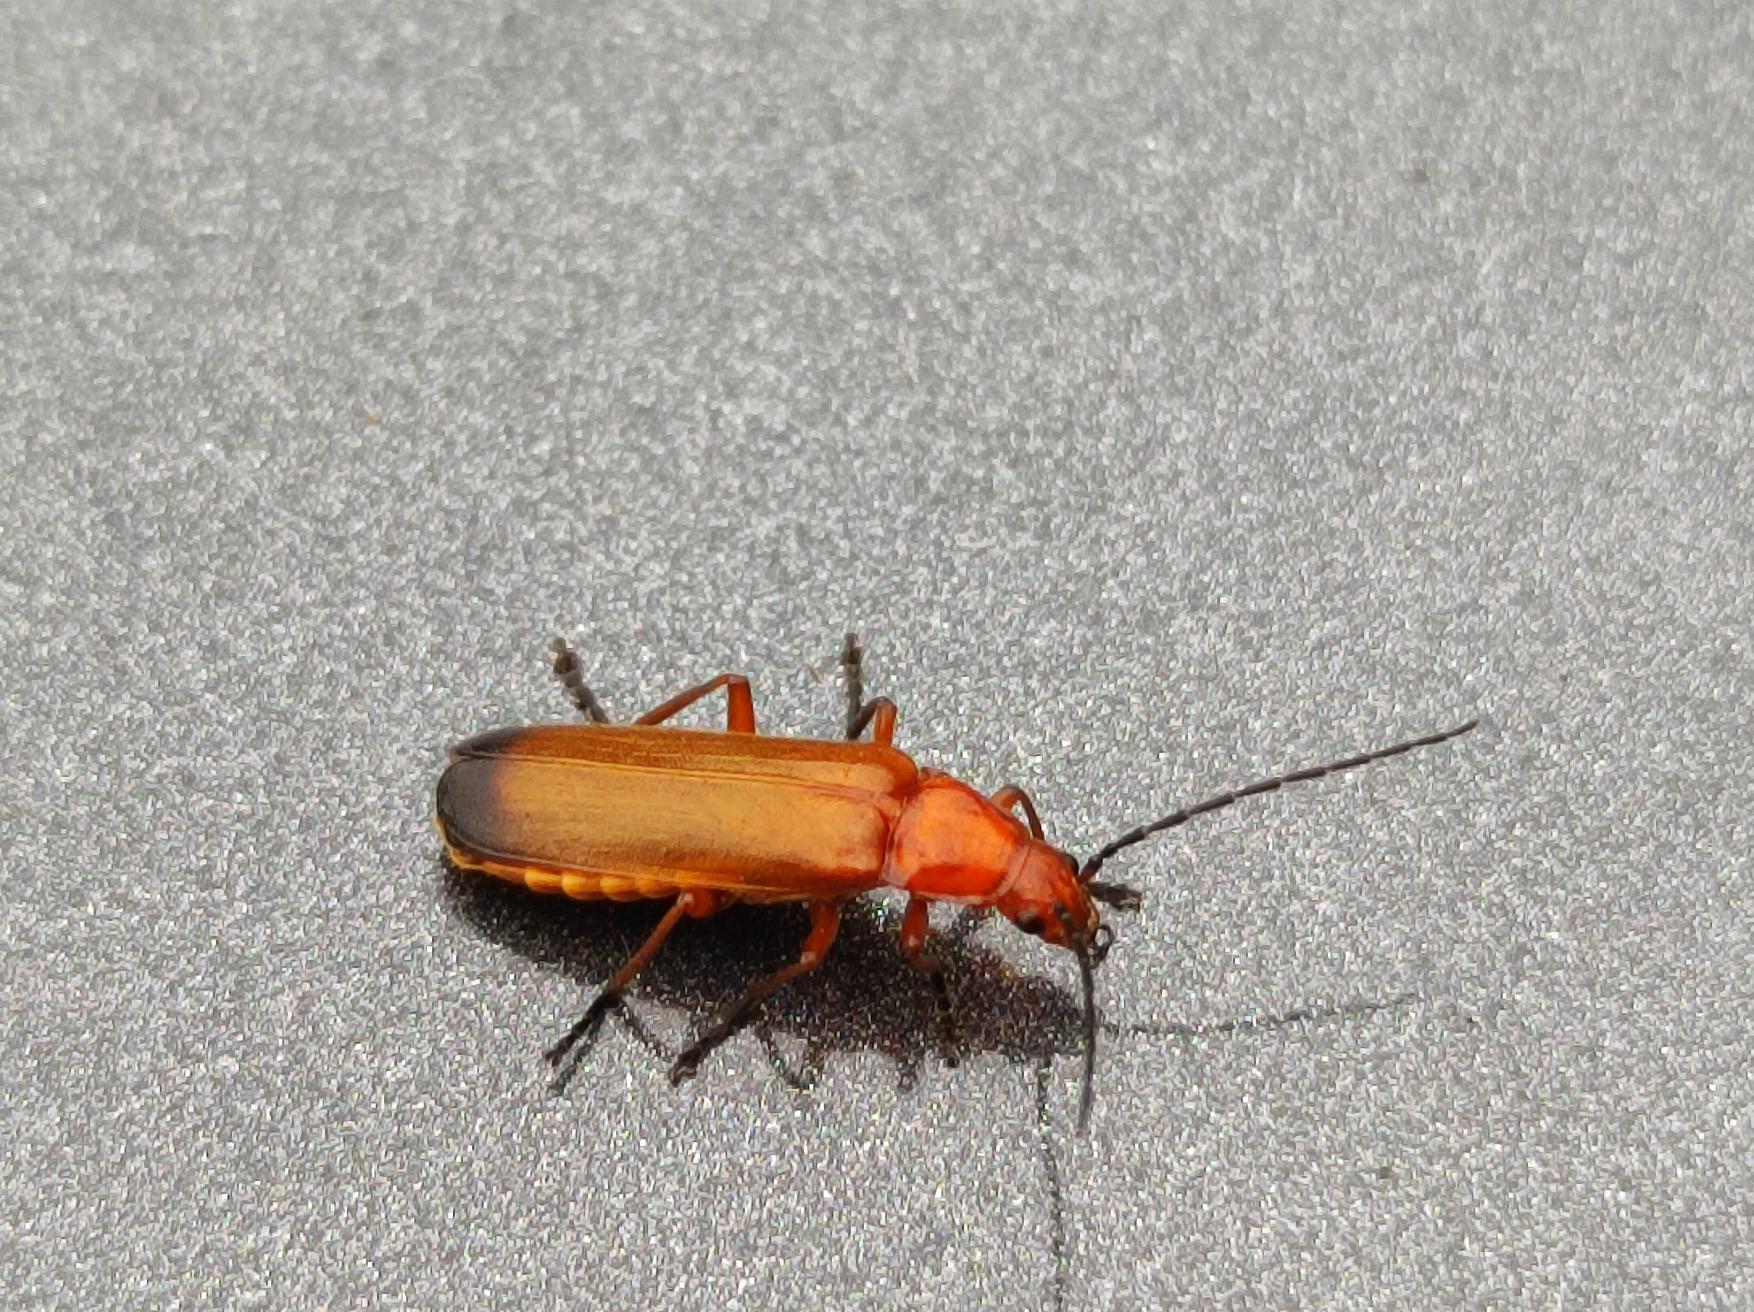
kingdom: Animalia
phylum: Arthropoda
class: Insecta
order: Coleoptera
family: Cantharidae
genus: Rhagonycha
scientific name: Rhagonycha fulva
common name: Præstebille
